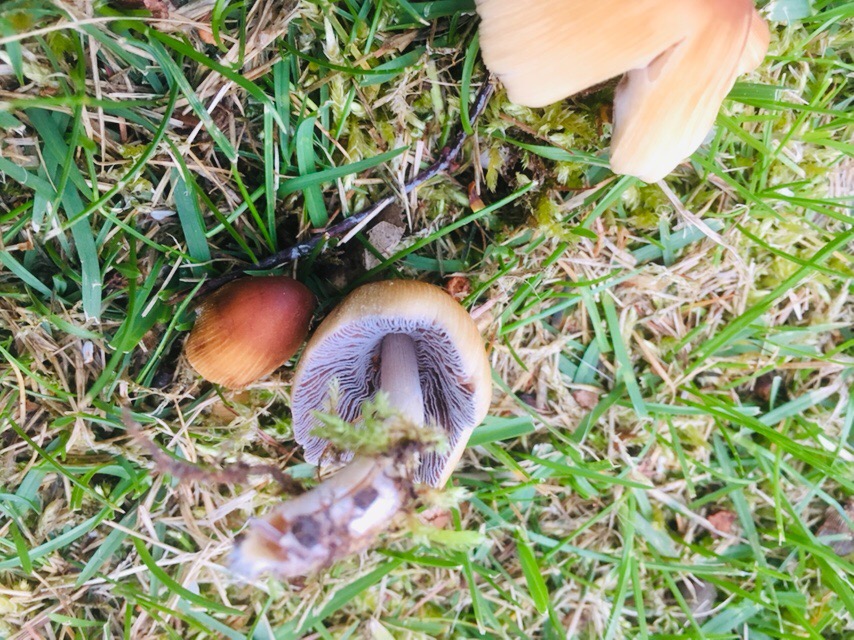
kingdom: Fungi
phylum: Basidiomycota
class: Agaricomycetes
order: Agaricales
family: Psathyrellaceae
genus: Coprinellus
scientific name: Coprinellus micaceus
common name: glimmer-blækhat
